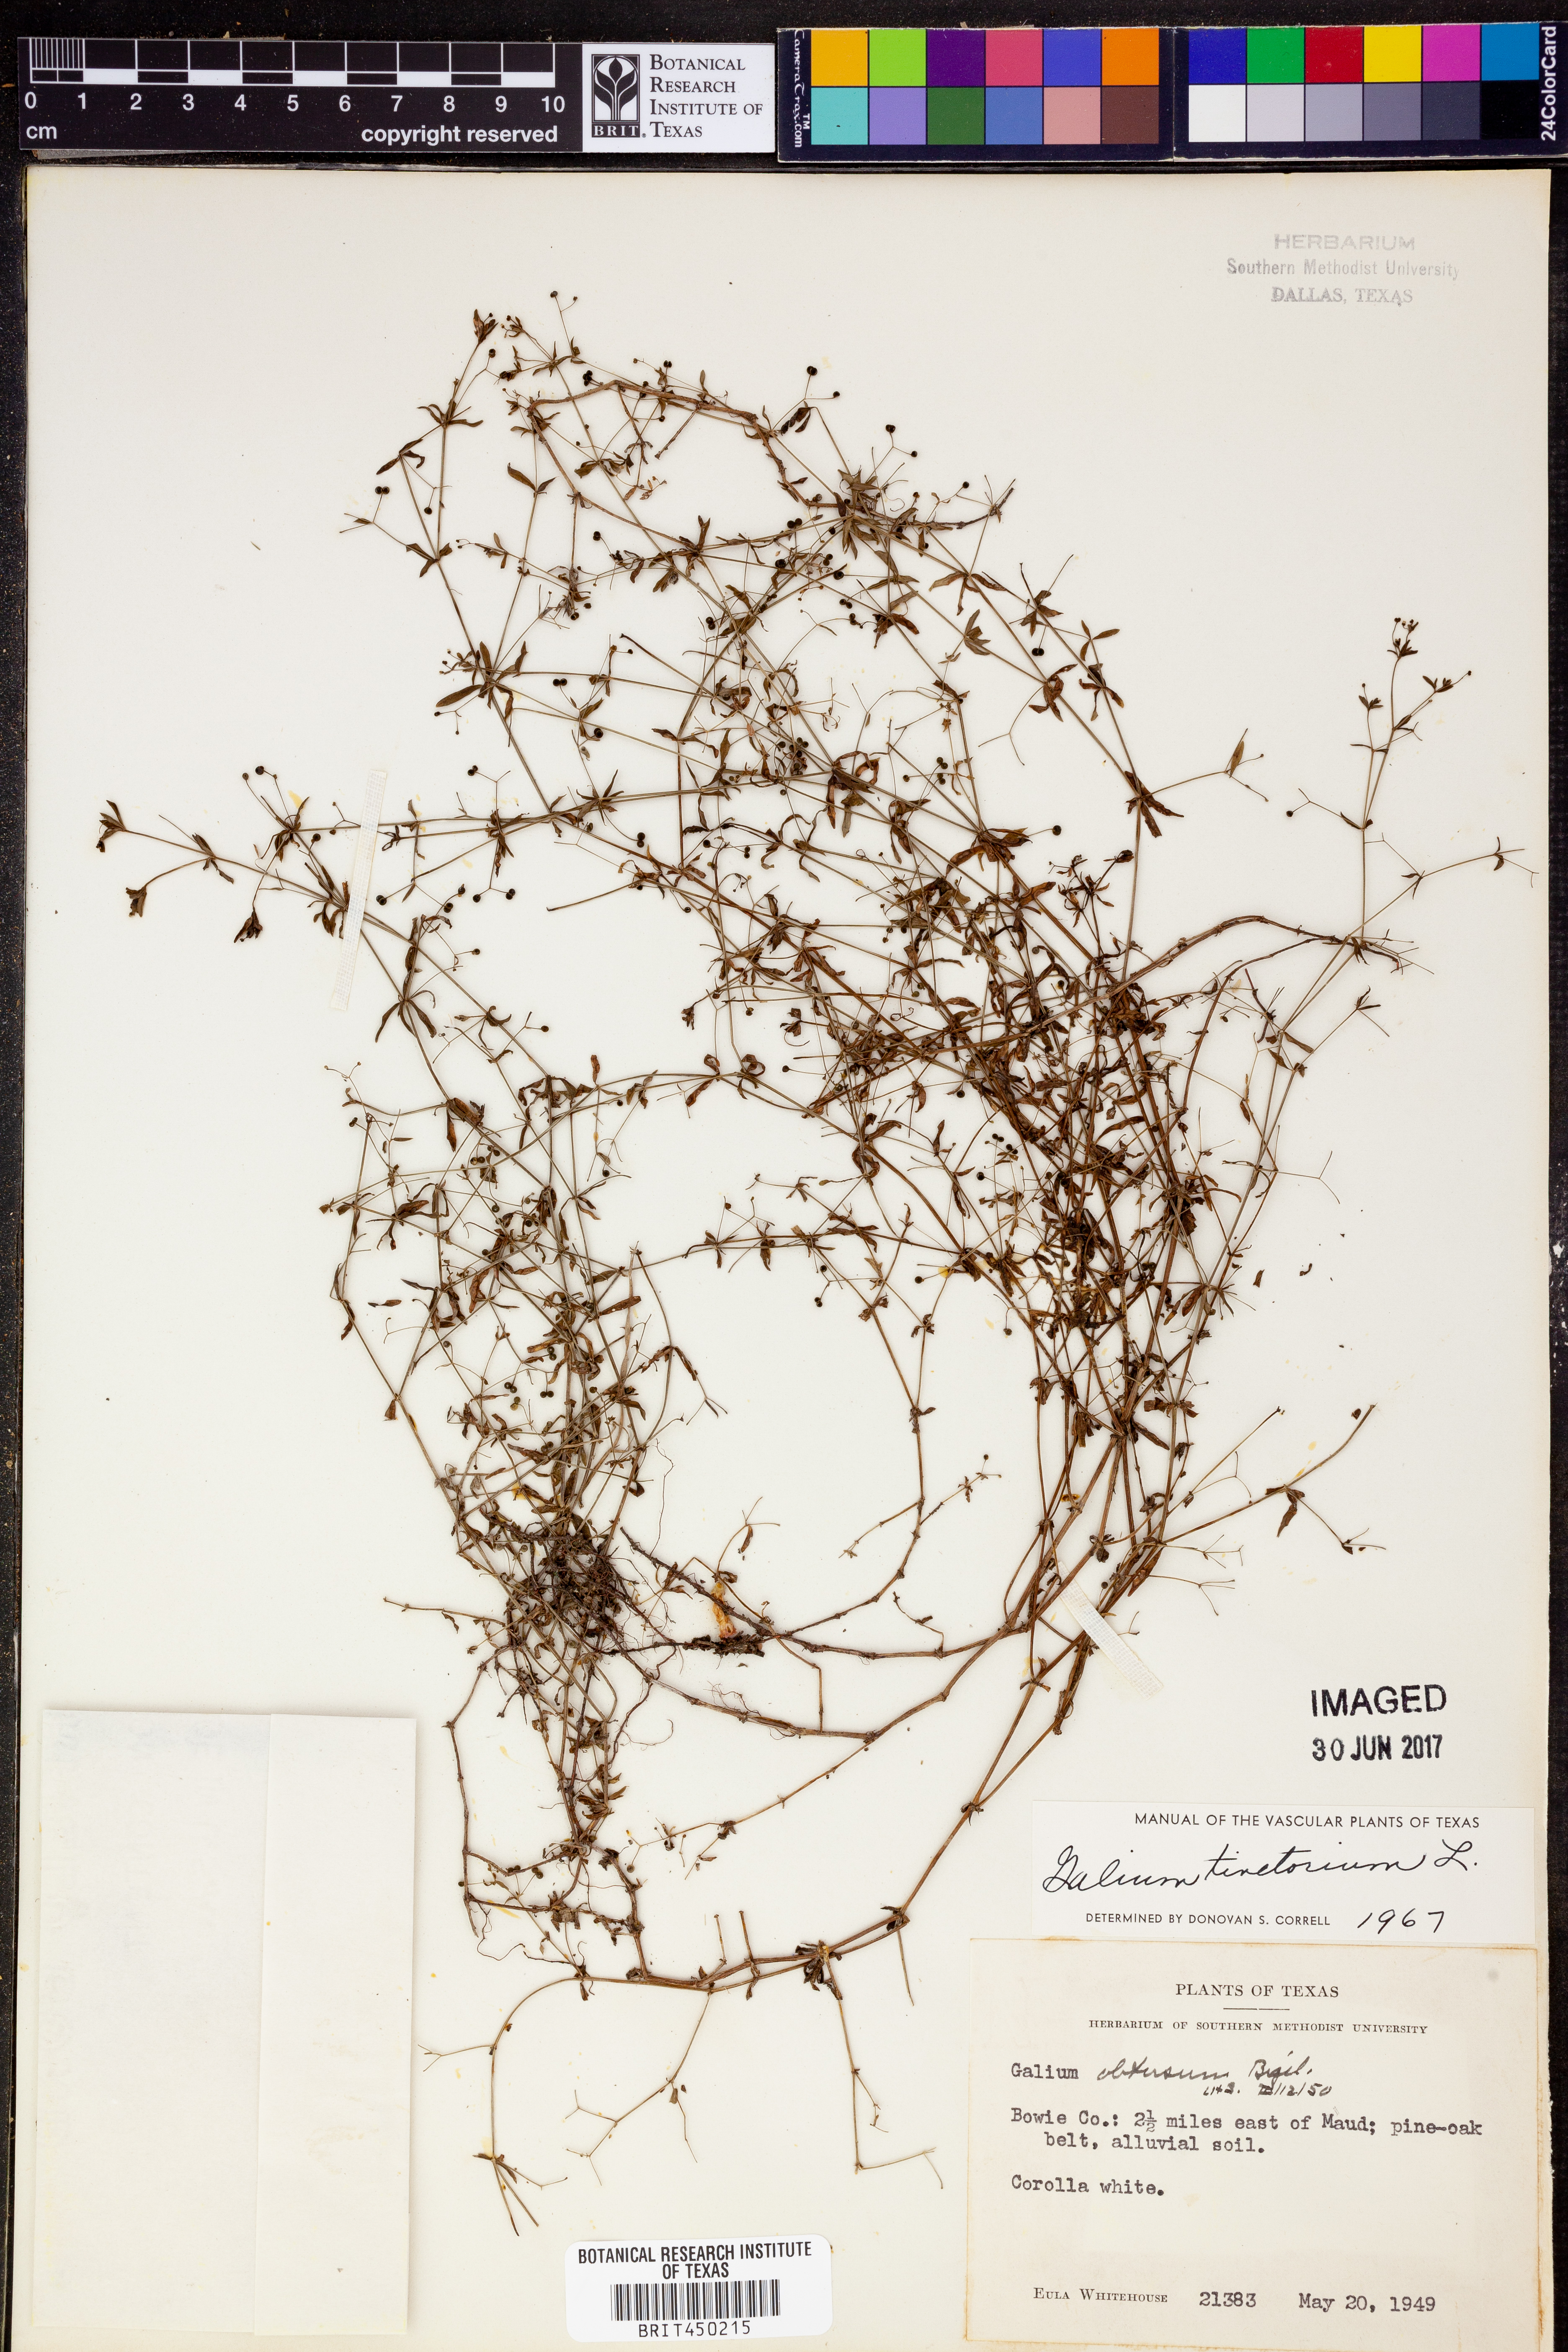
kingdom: Plantae
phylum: Tracheophyta
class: Magnoliopsida
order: Gentianales
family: Rubiaceae
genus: Asperula
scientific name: Asperula tinctoria
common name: Dyer's woodruff
